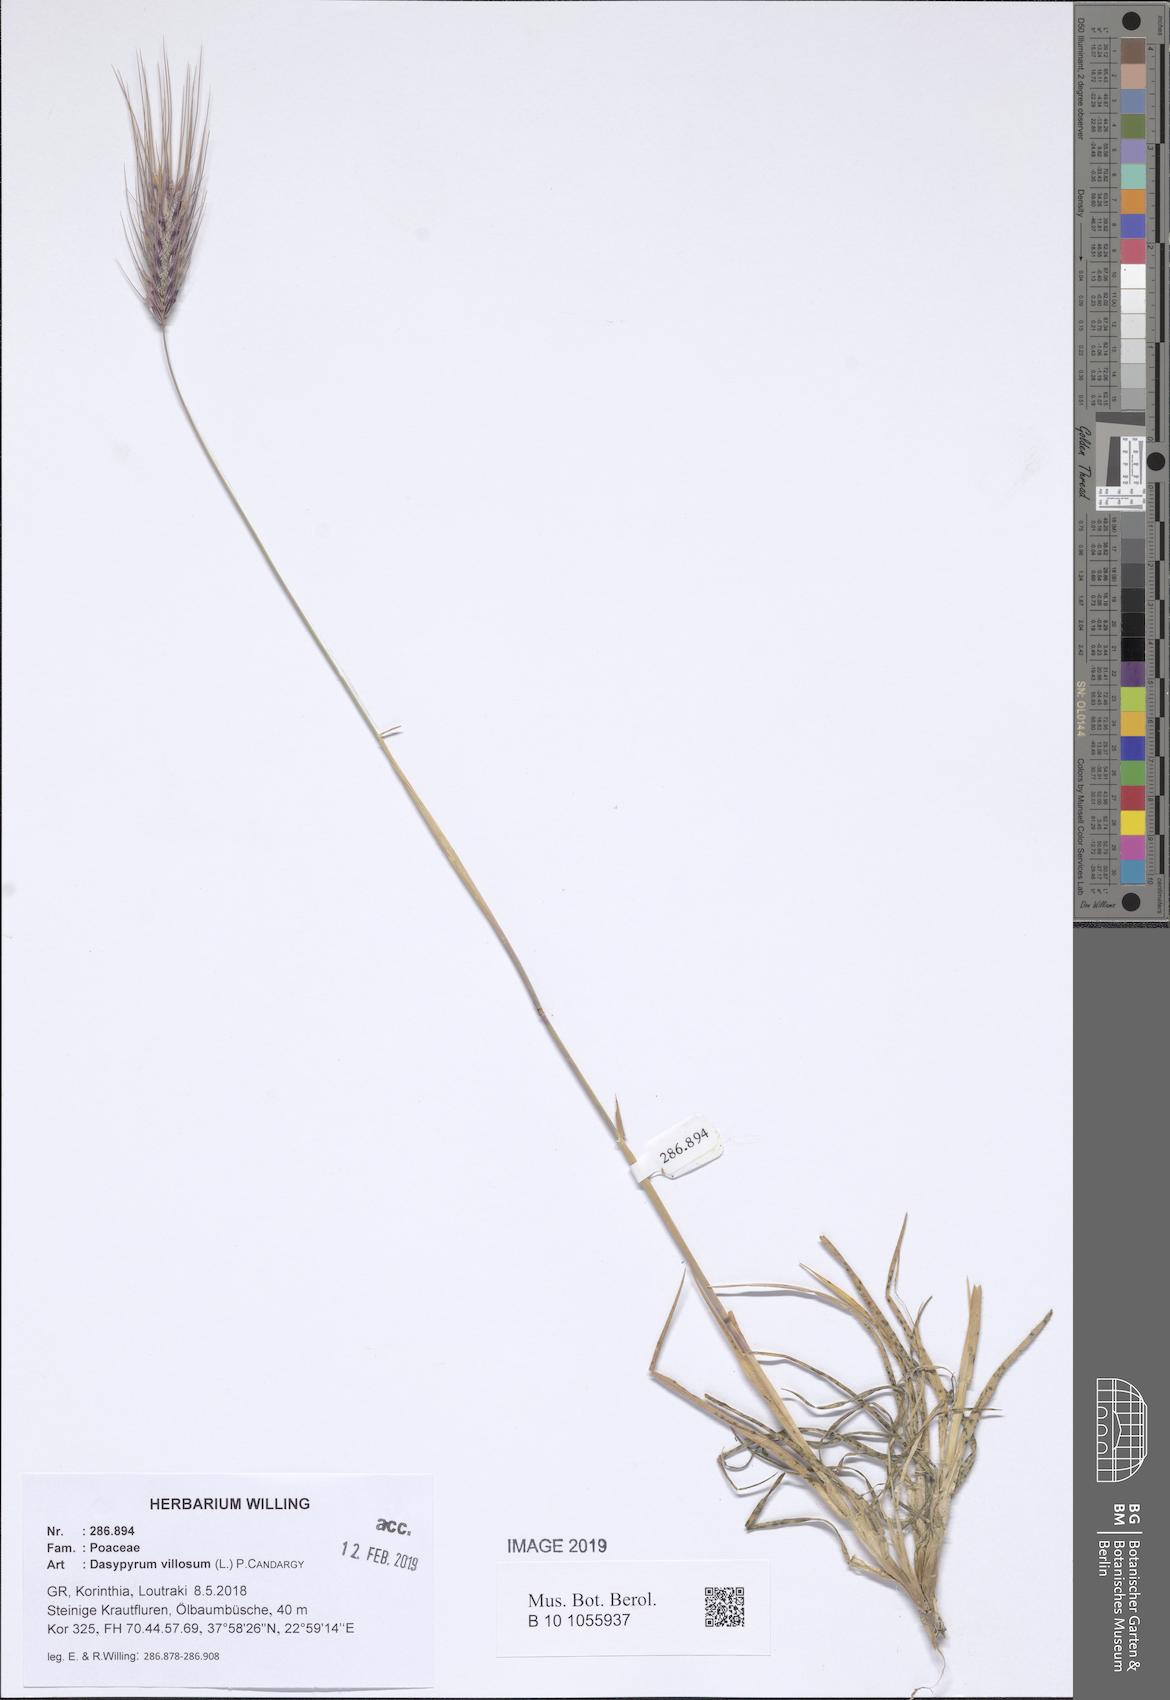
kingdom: Plantae
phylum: Tracheophyta
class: Liliopsida
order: Poales
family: Poaceae
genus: Dasypyrum
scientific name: Dasypyrum villosum
